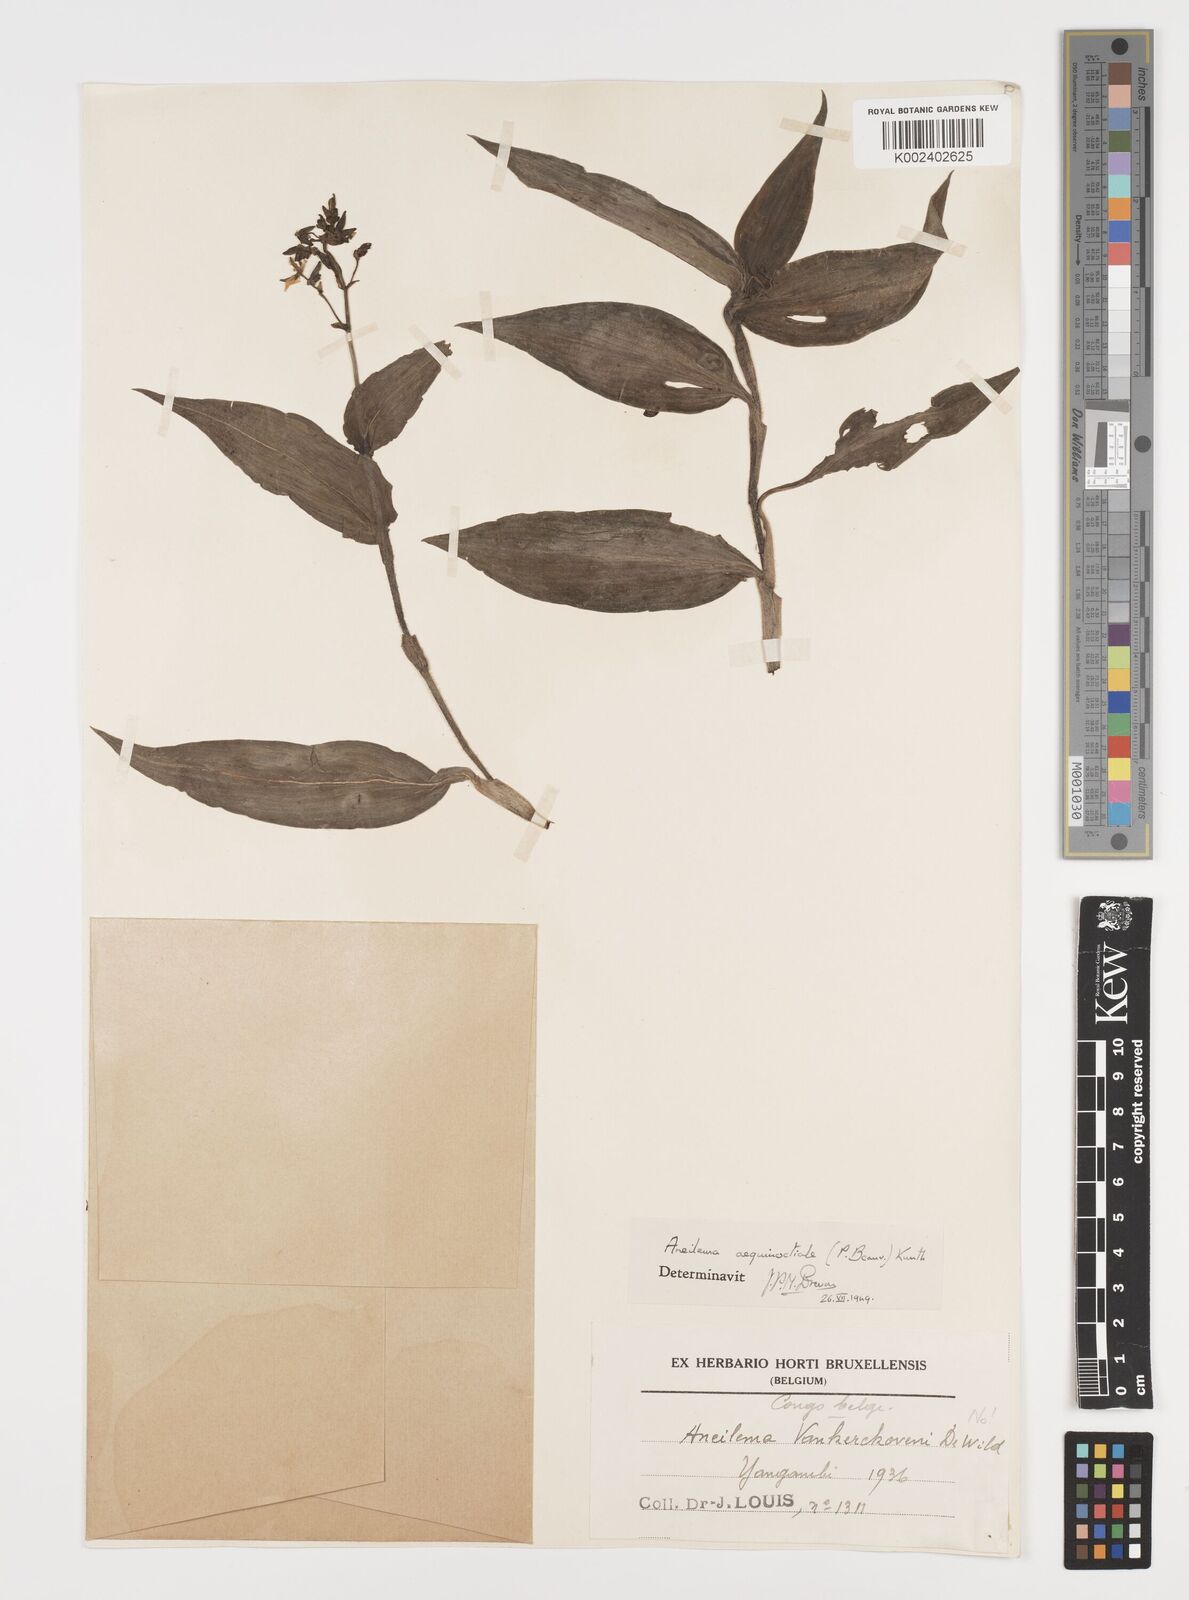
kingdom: Plantae
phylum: Tracheophyta
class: Liliopsida
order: Commelinales
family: Commelinaceae
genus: Aneilema
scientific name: Aneilema aequinoctiale
